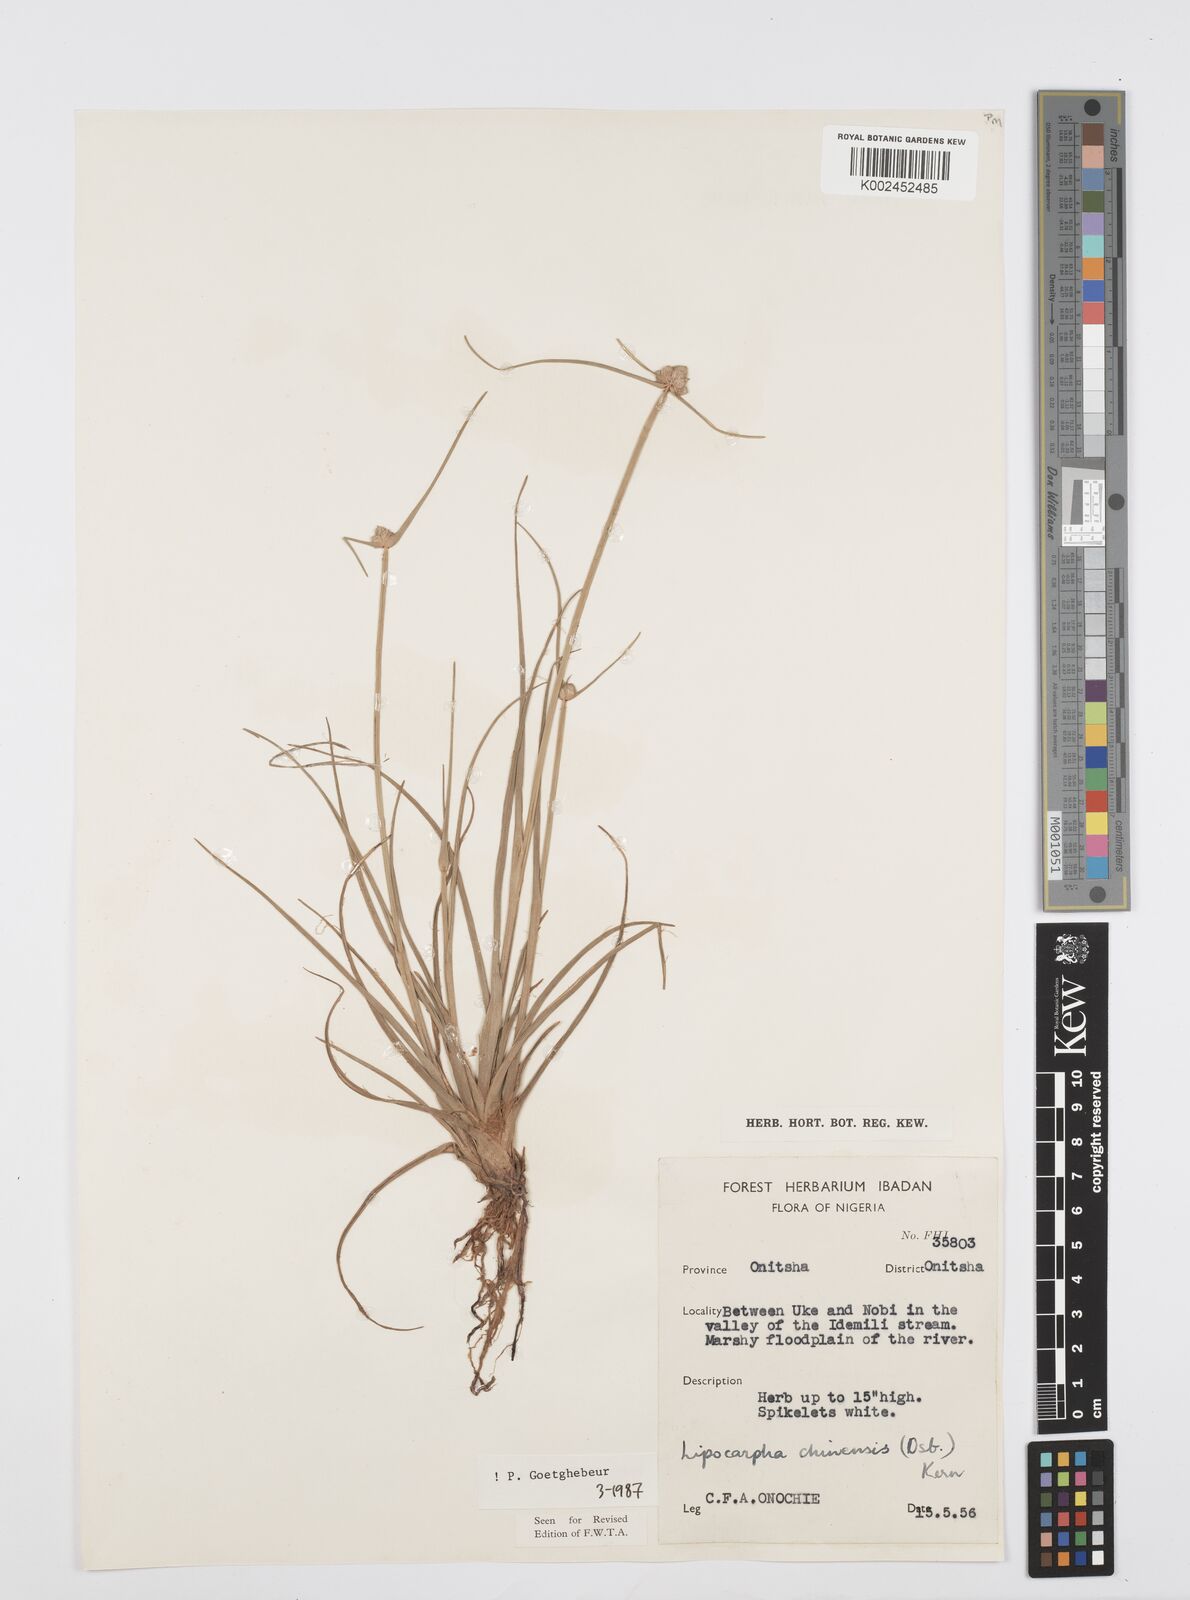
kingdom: Plantae
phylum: Tracheophyta
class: Liliopsida
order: Poales
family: Cyperaceae
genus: Cyperus
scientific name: Cyperus albescens
